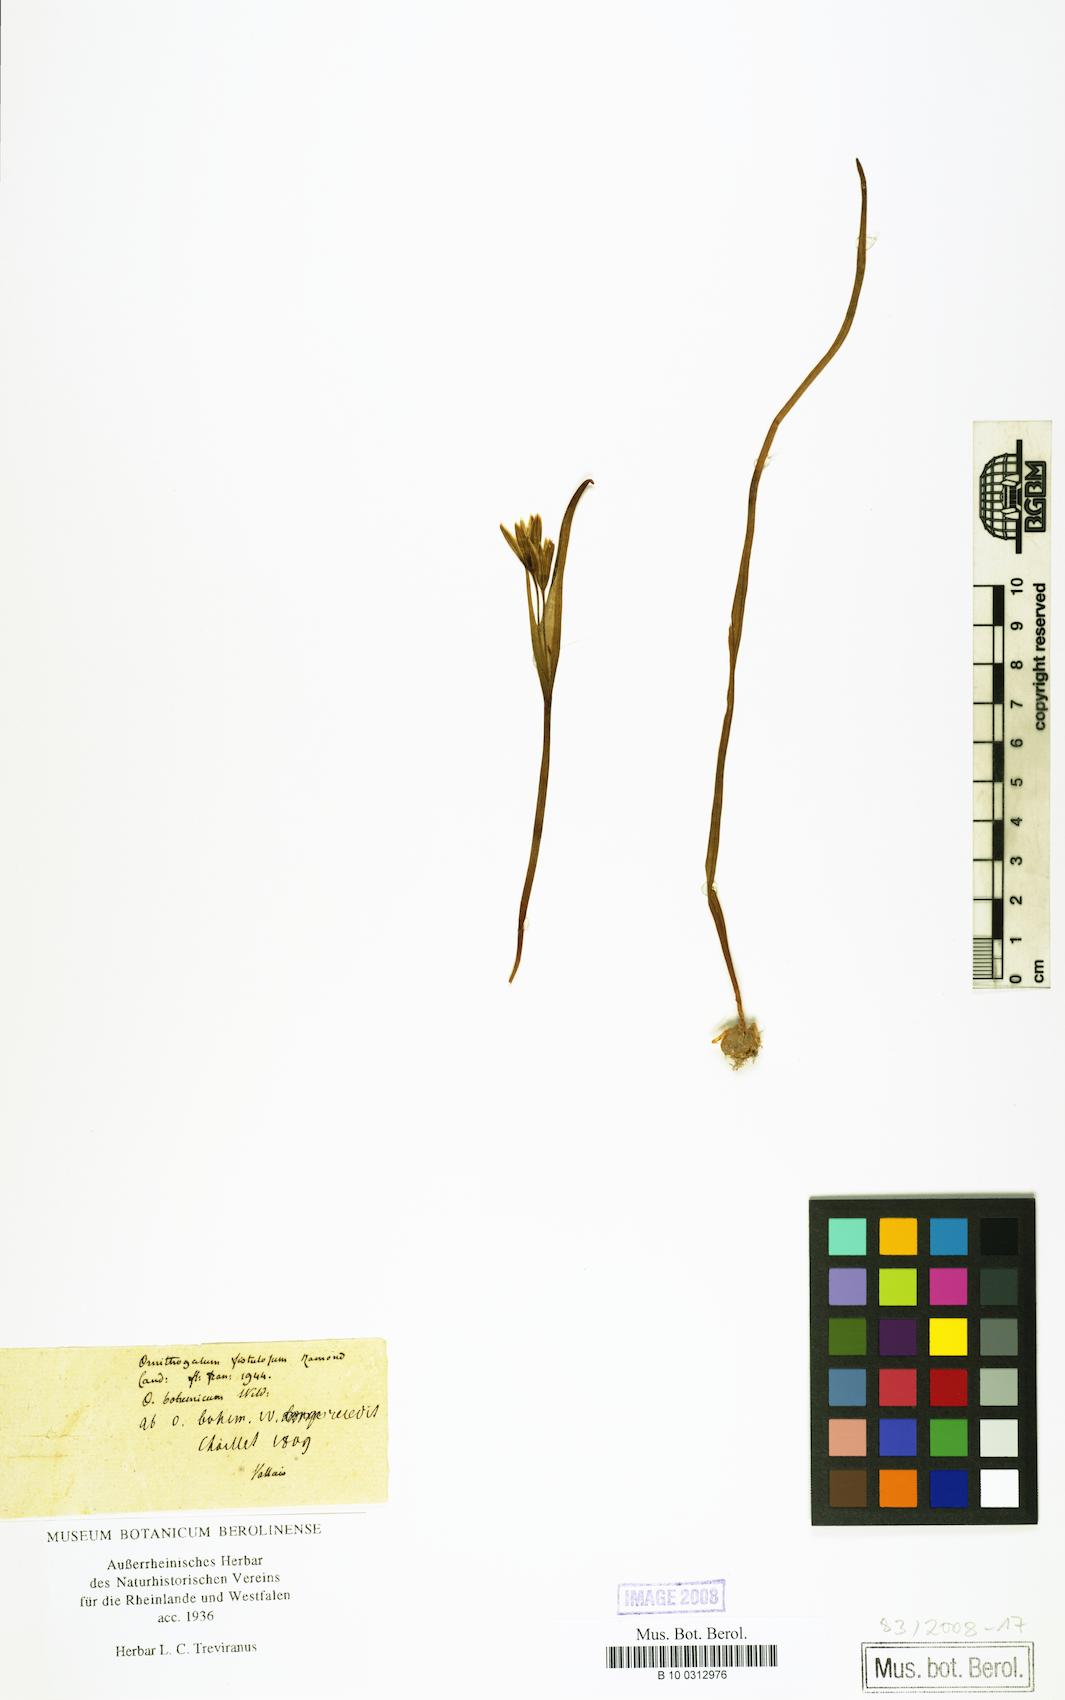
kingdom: Plantae
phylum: Tracheophyta
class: Liliopsida
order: Liliales
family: Liliaceae
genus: Gagea
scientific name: Gagea
